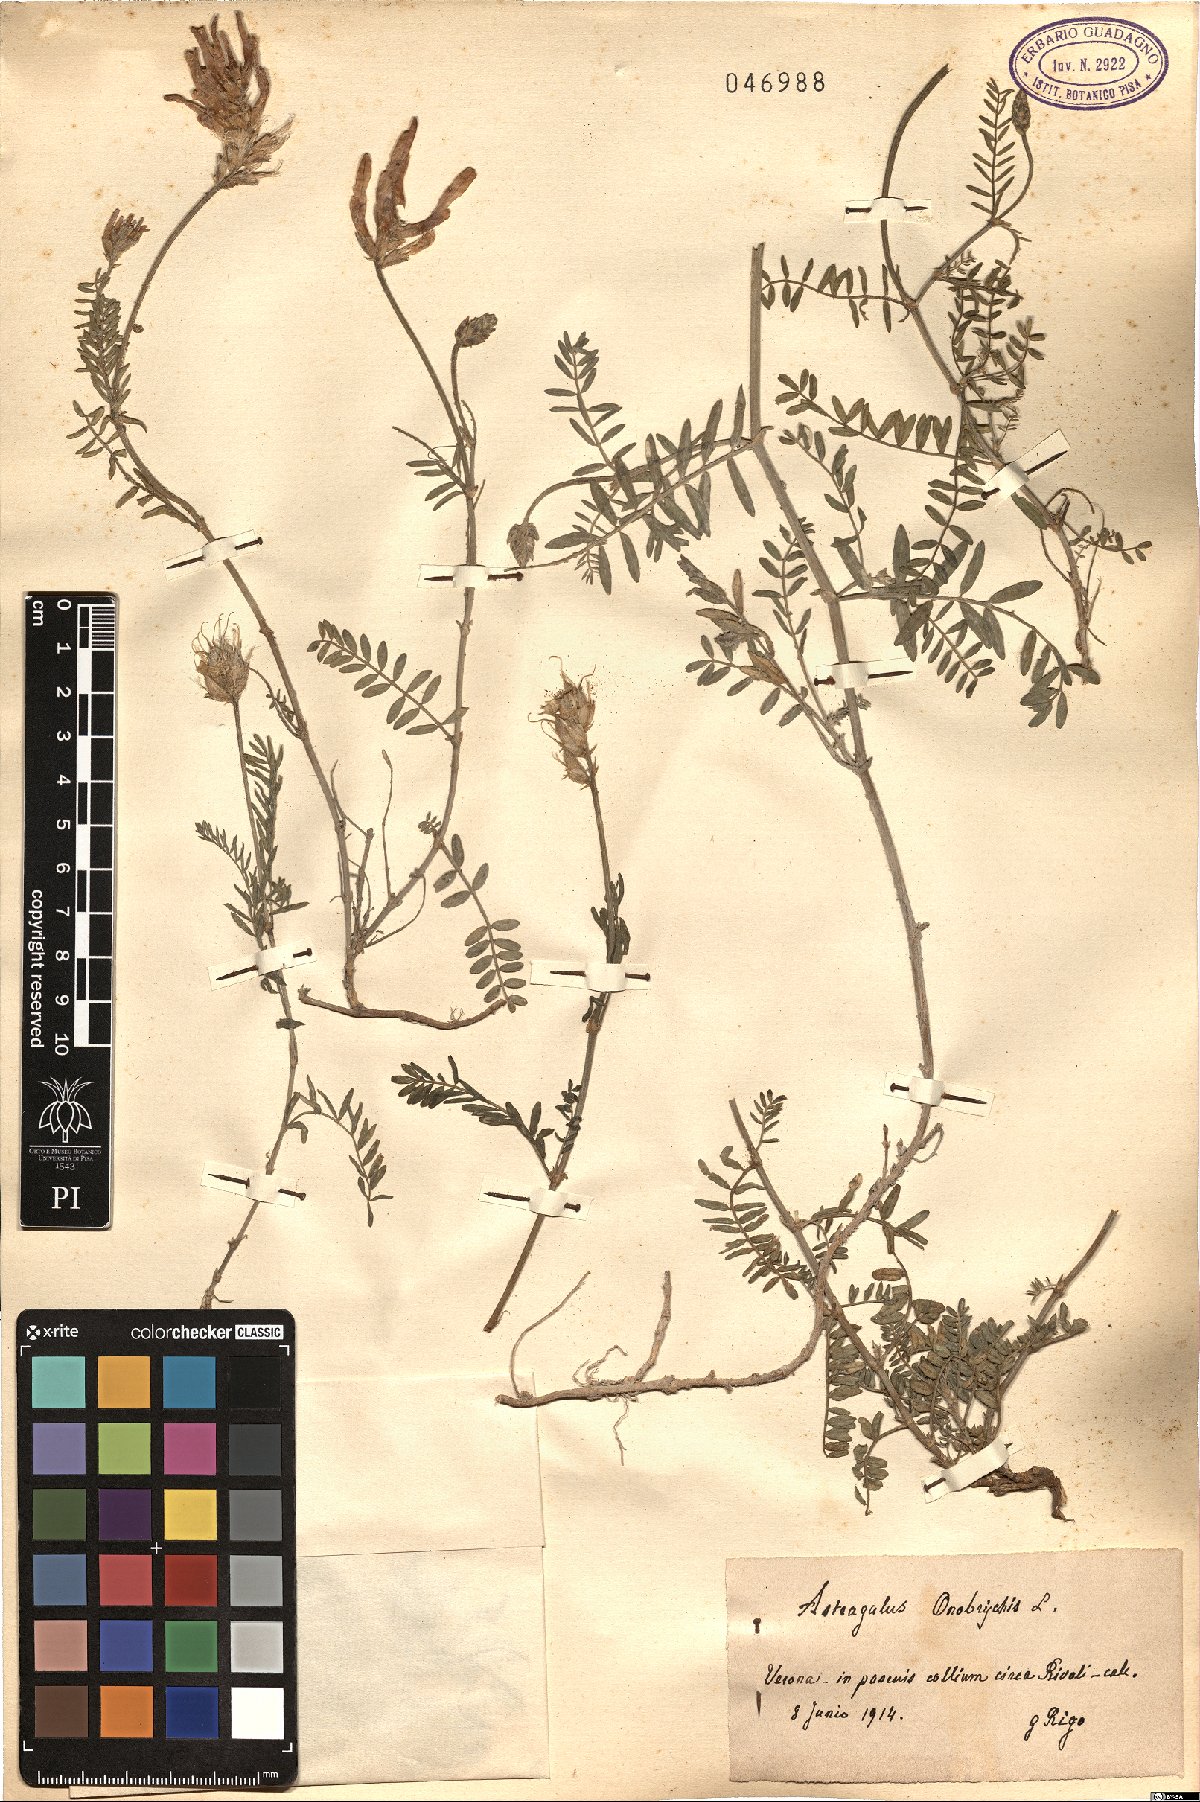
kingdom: Plantae
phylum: Tracheophyta
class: Magnoliopsida
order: Fabales
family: Fabaceae
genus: Astragalus
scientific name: Astragalus onobrychis
